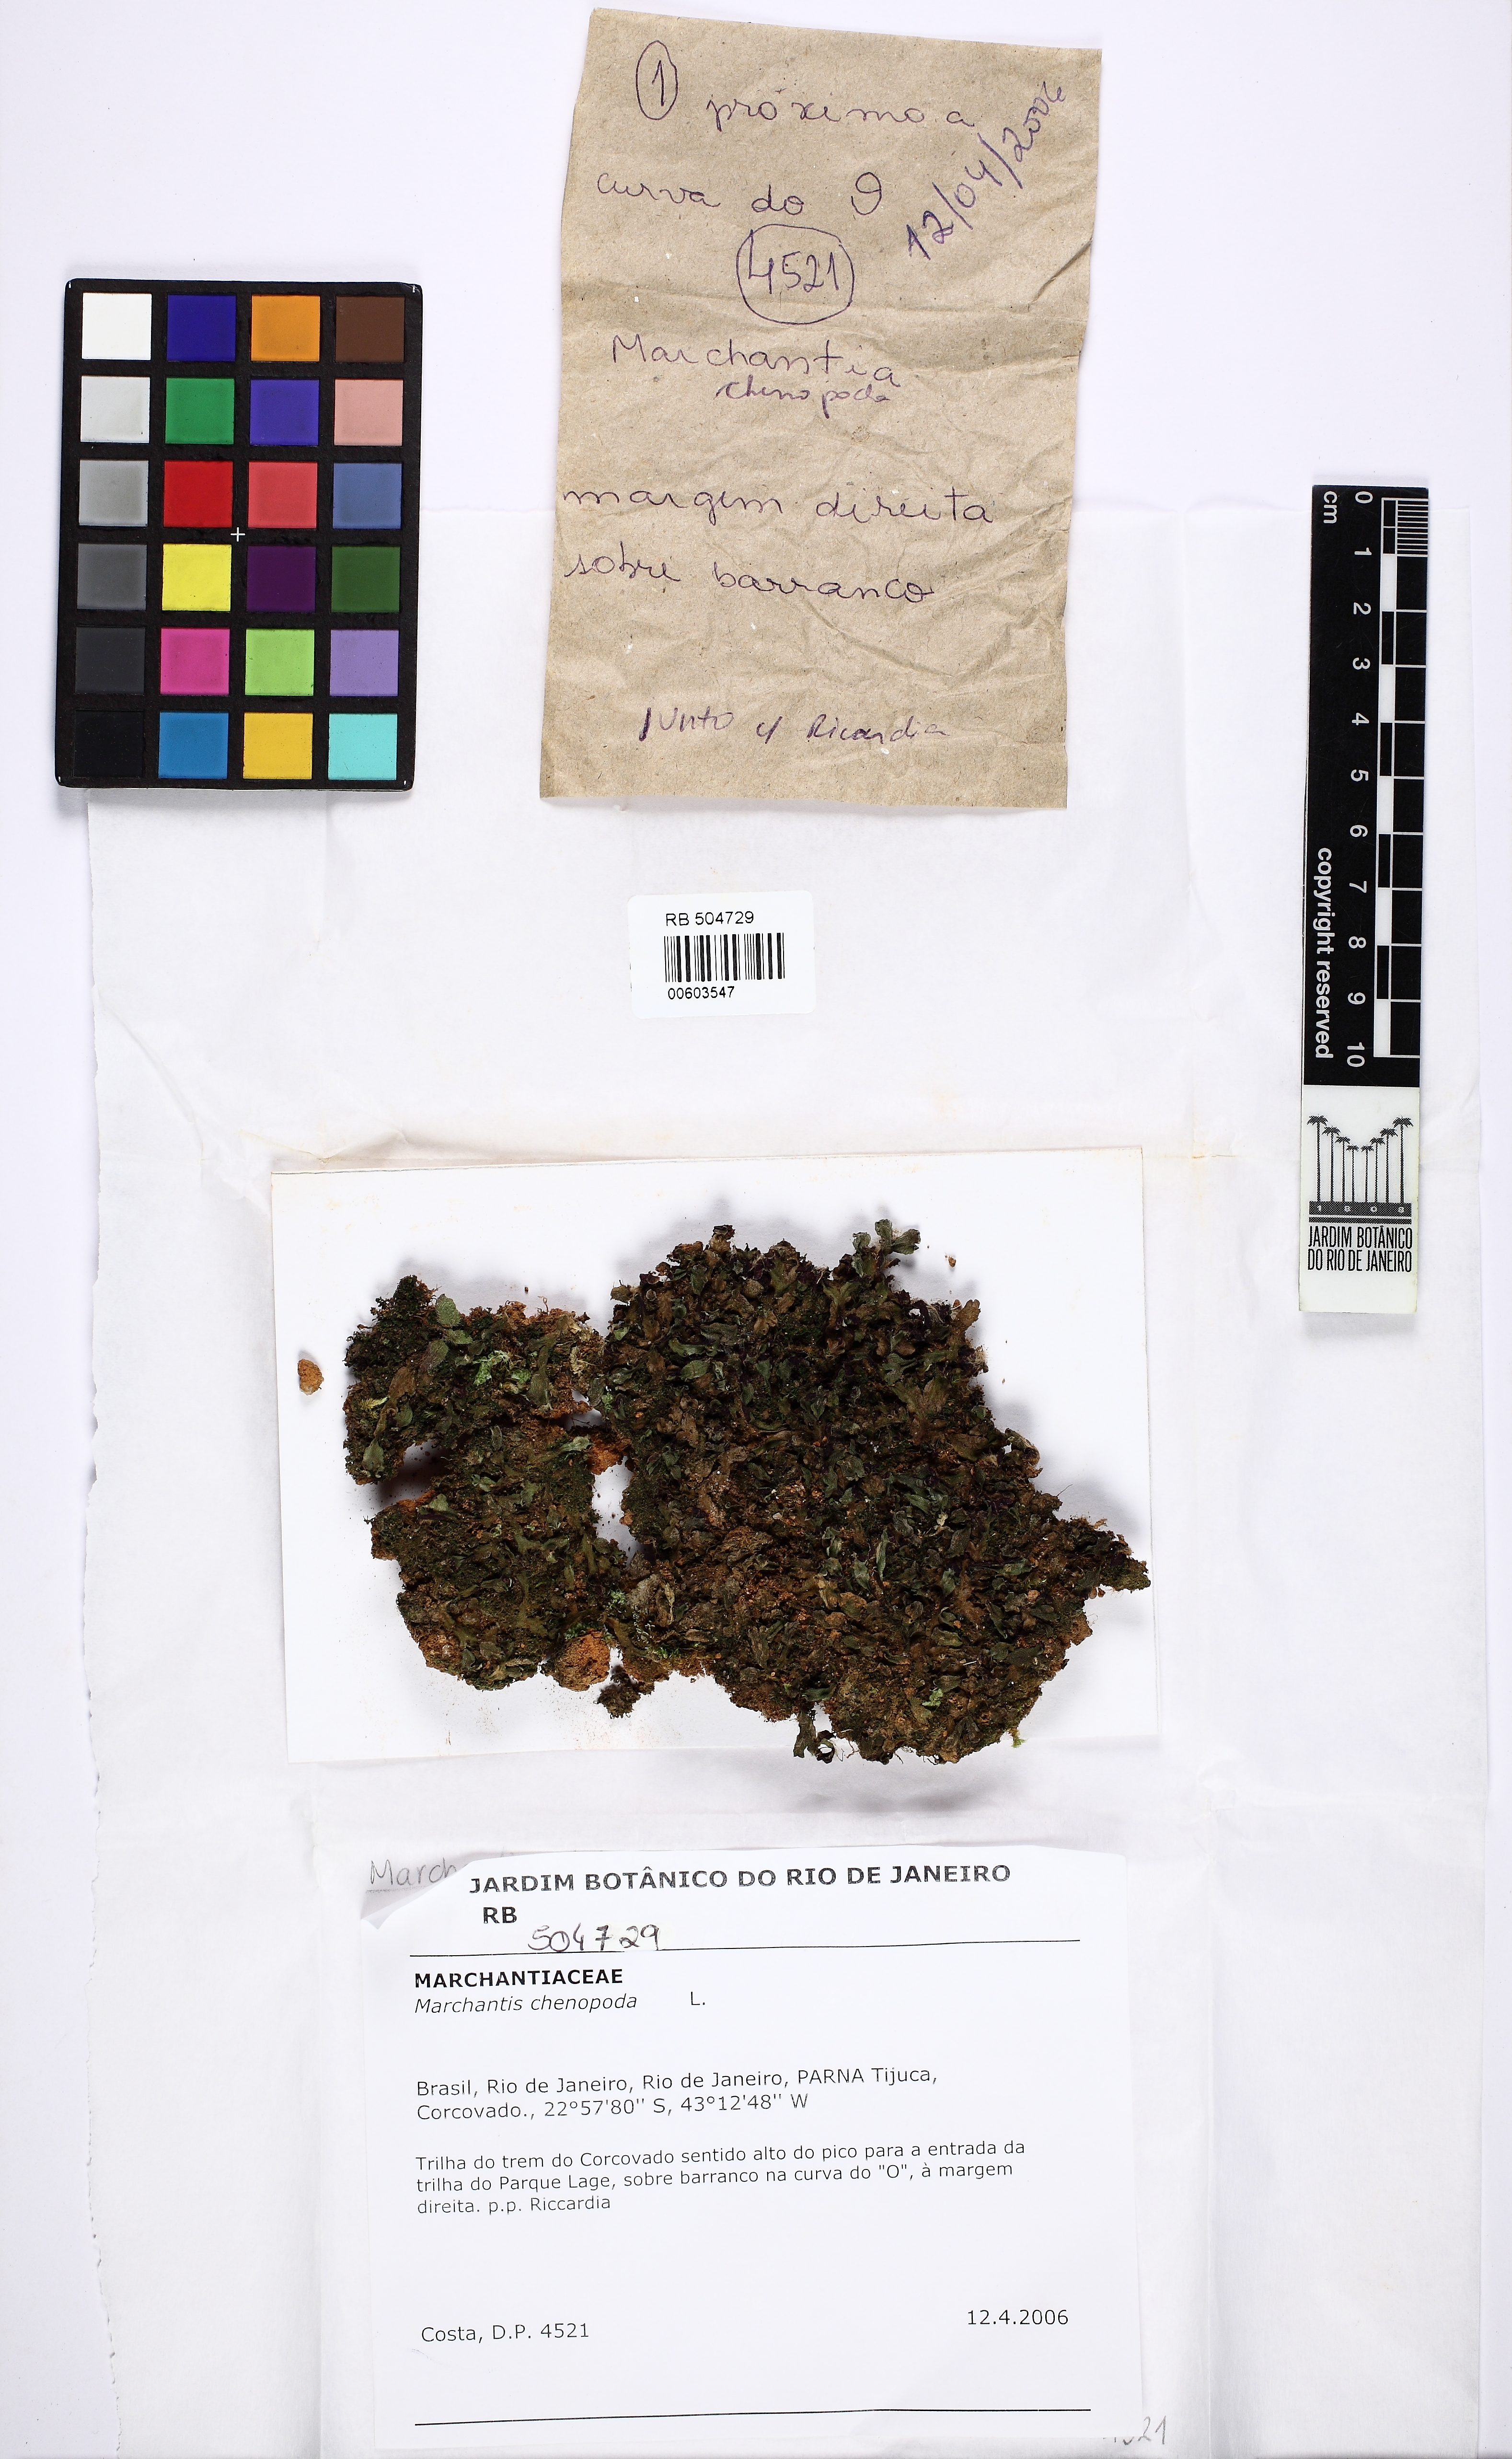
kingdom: Plantae
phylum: Marchantiophyta
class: Marchantiopsida
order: Marchantiales
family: Marchantiaceae
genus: Marchantia
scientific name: Marchantia chenopoda
